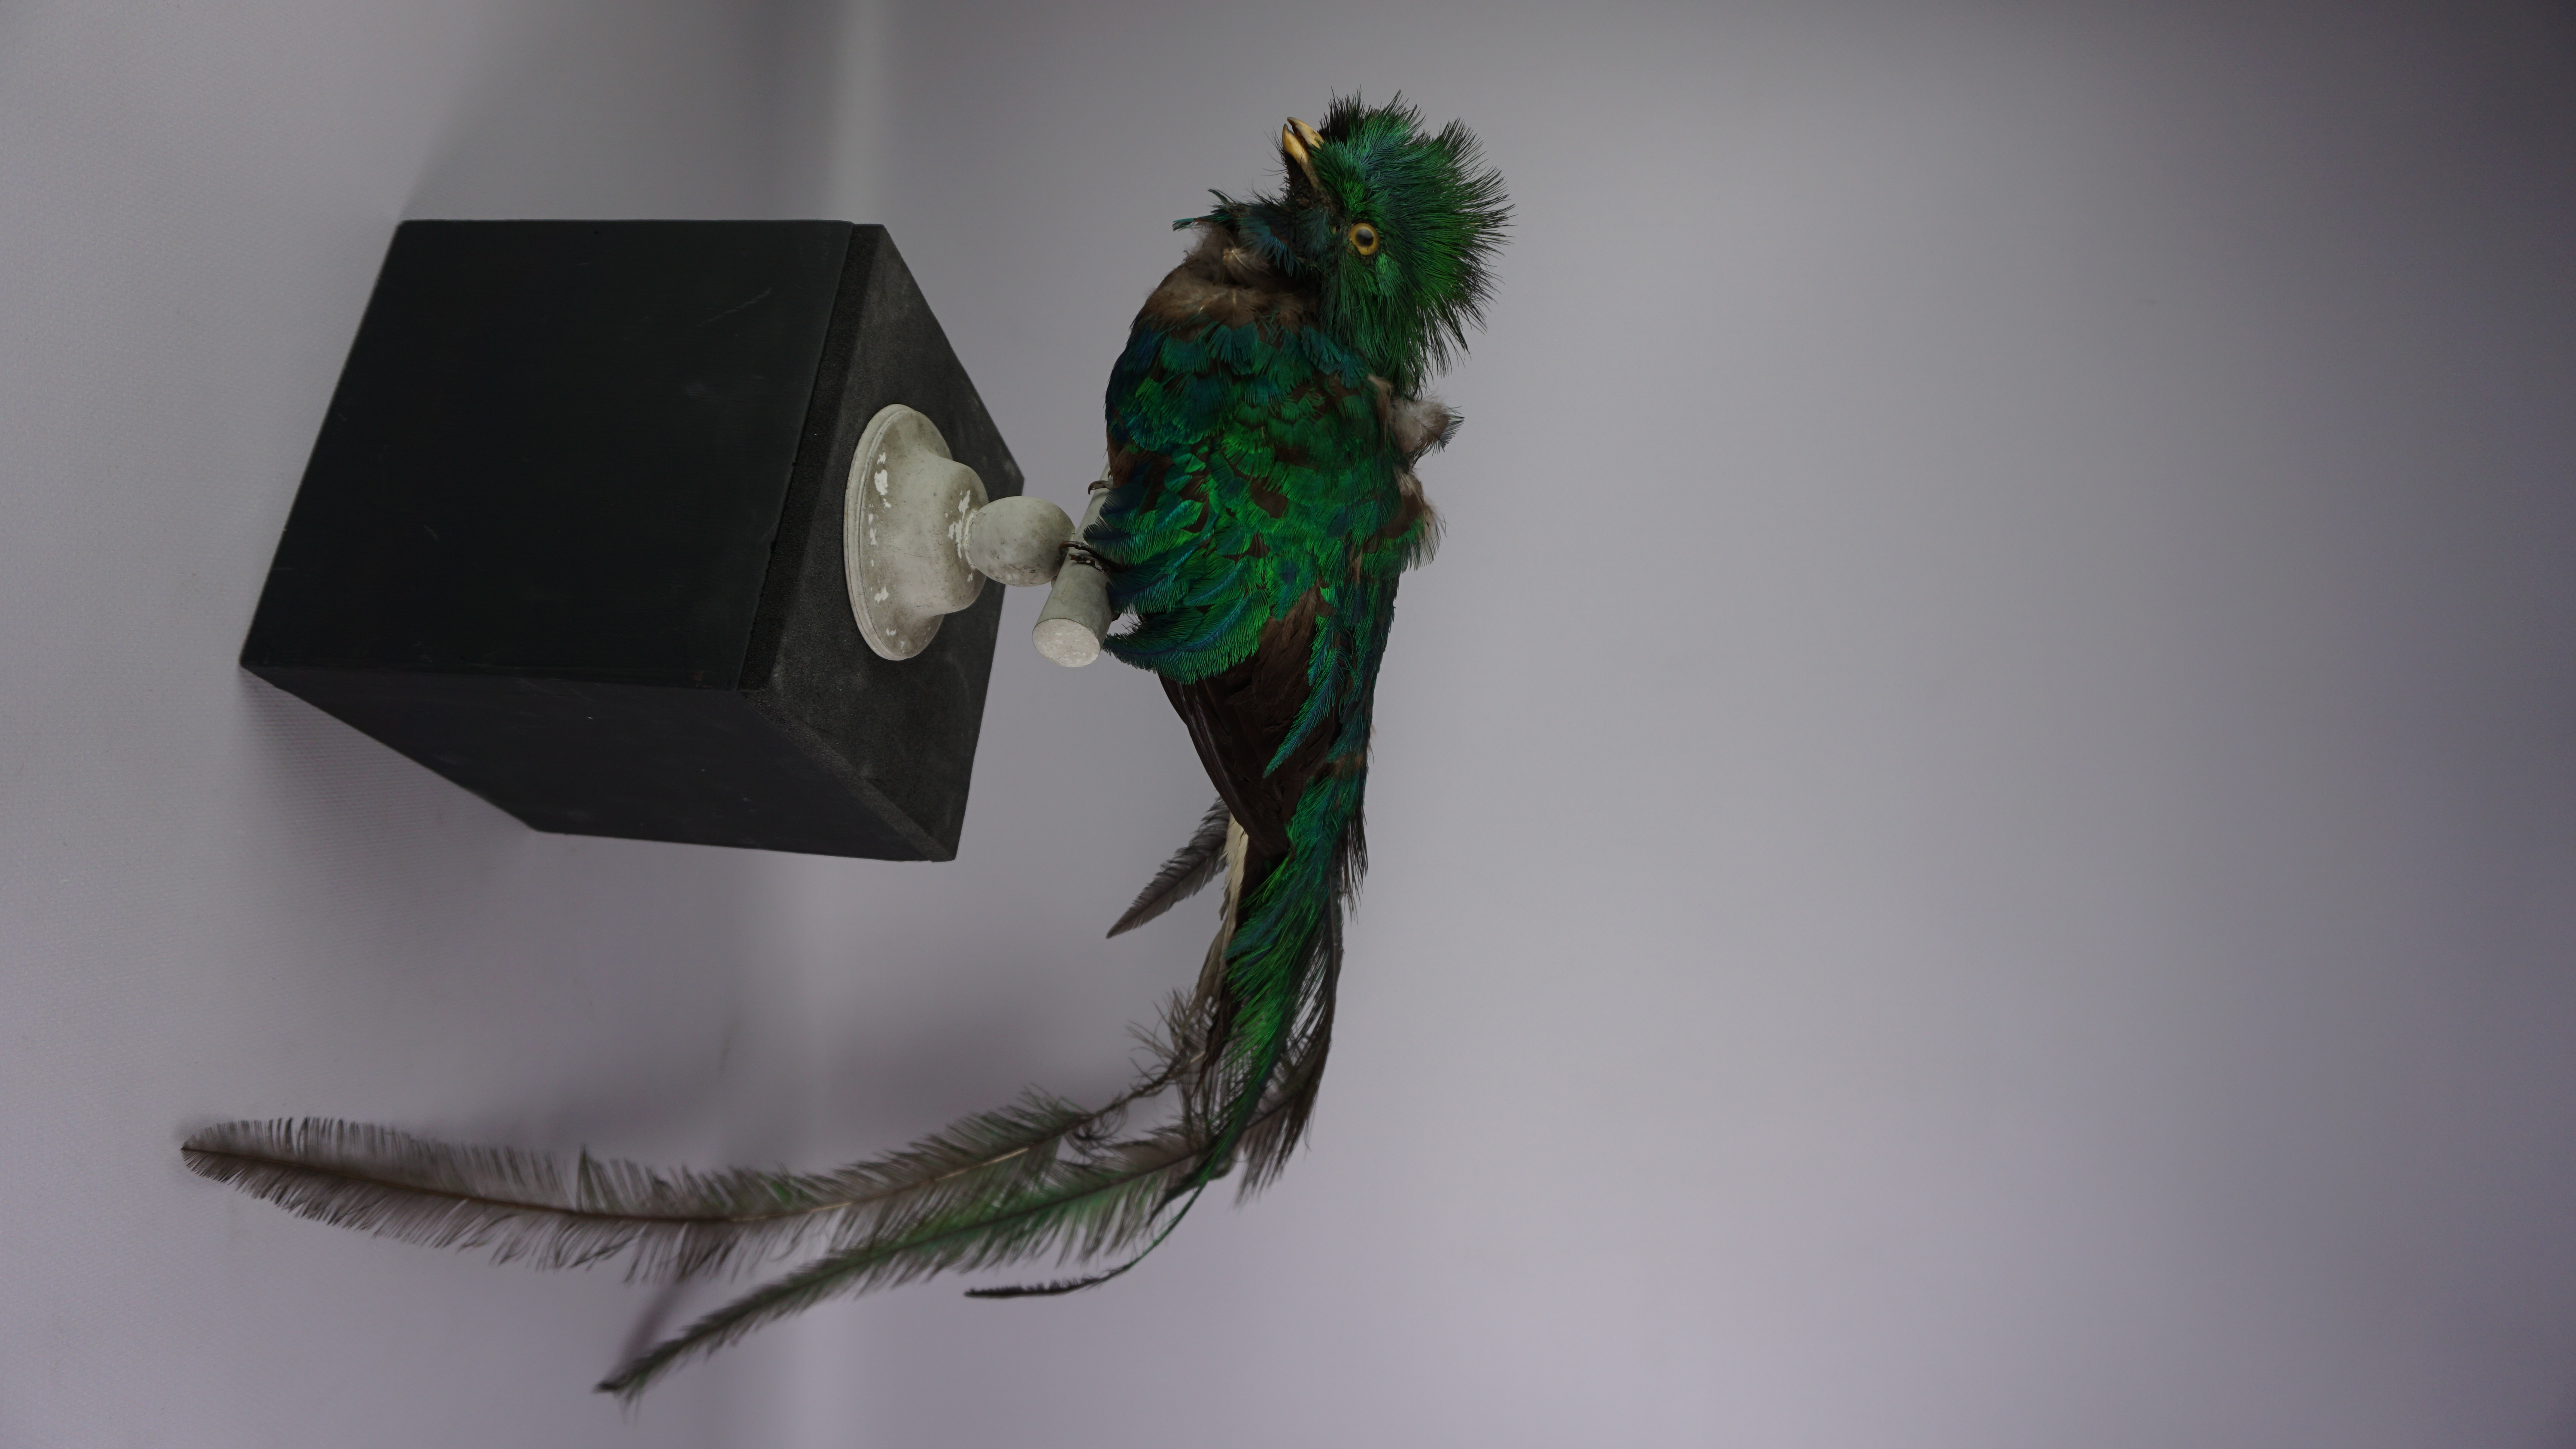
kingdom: Animalia
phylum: Chordata
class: Aves
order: Trogoniformes
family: Trogonidae
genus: Pharomachrus
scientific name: Pharomachrus mocinno
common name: Resplendent quetzal
